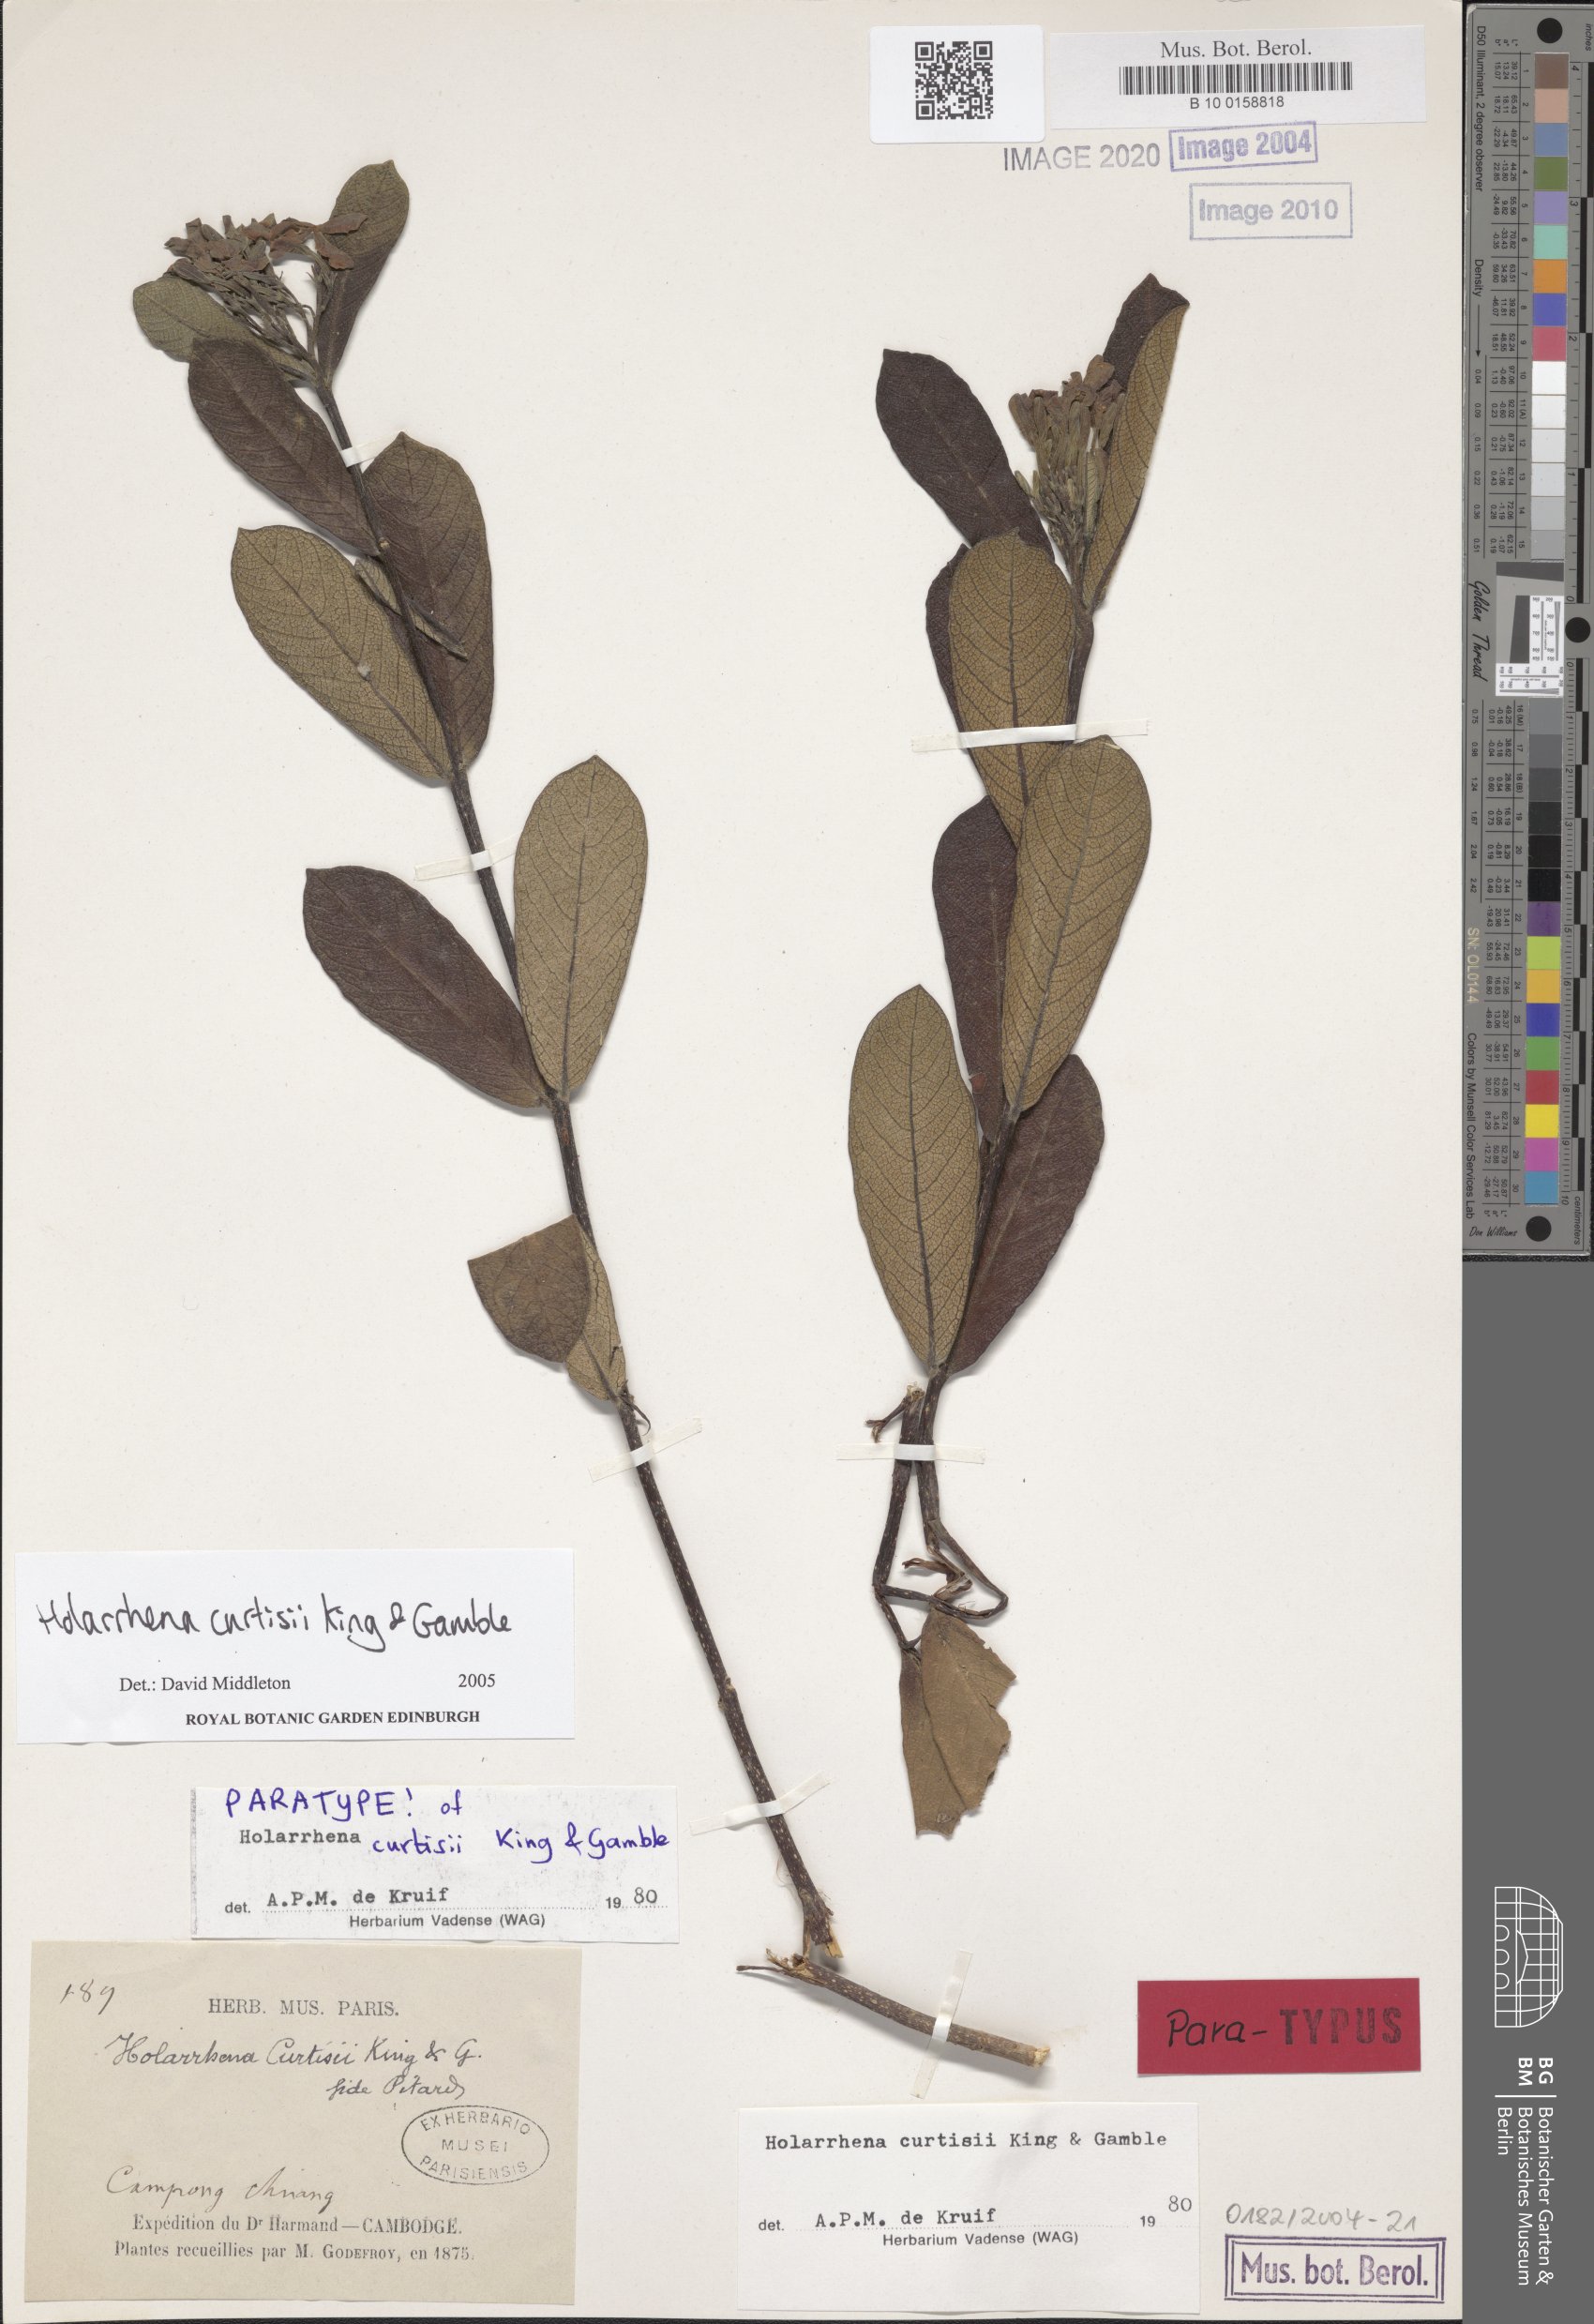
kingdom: Plantae
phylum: Tracheophyta
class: Magnoliopsida
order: Gentianales
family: Apocynaceae
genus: Holarrhena
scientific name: Holarrhena curtisii
